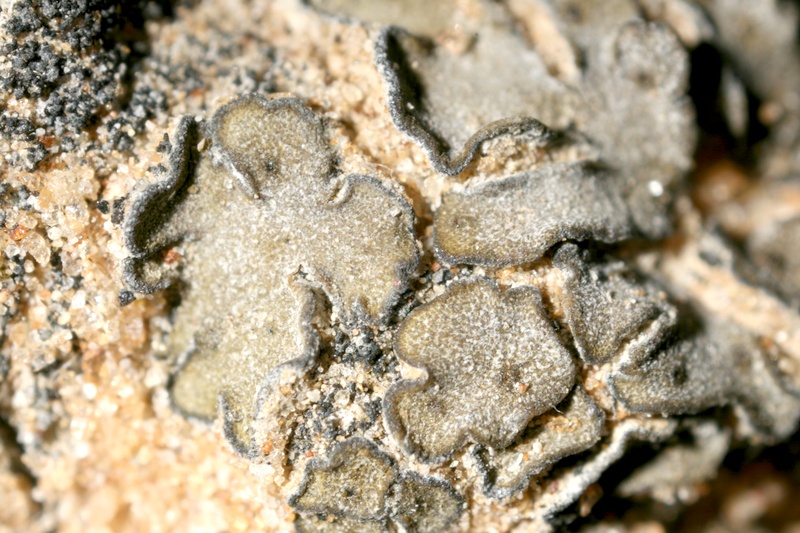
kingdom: Fungi
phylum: Ascomycota
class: Lichinomycetes
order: Lichinales
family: Lichinaceae
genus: Heppia
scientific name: Heppia despreauxii
